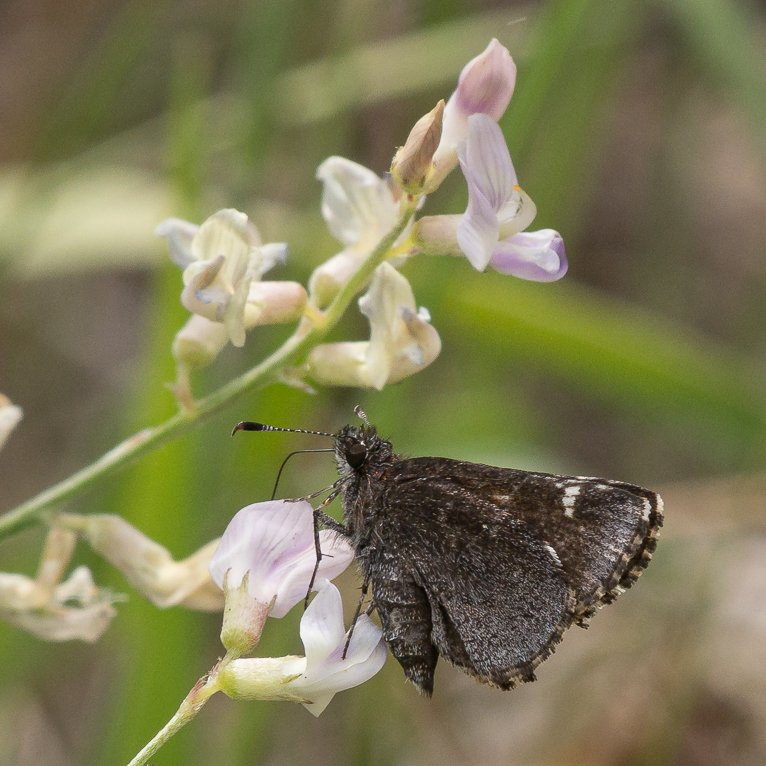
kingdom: Animalia
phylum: Arthropoda
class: Insecta
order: Lepidoptera
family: Hesperiidae
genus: Mastor
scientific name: Mastor vialis
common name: Common Roadside-Skipper
